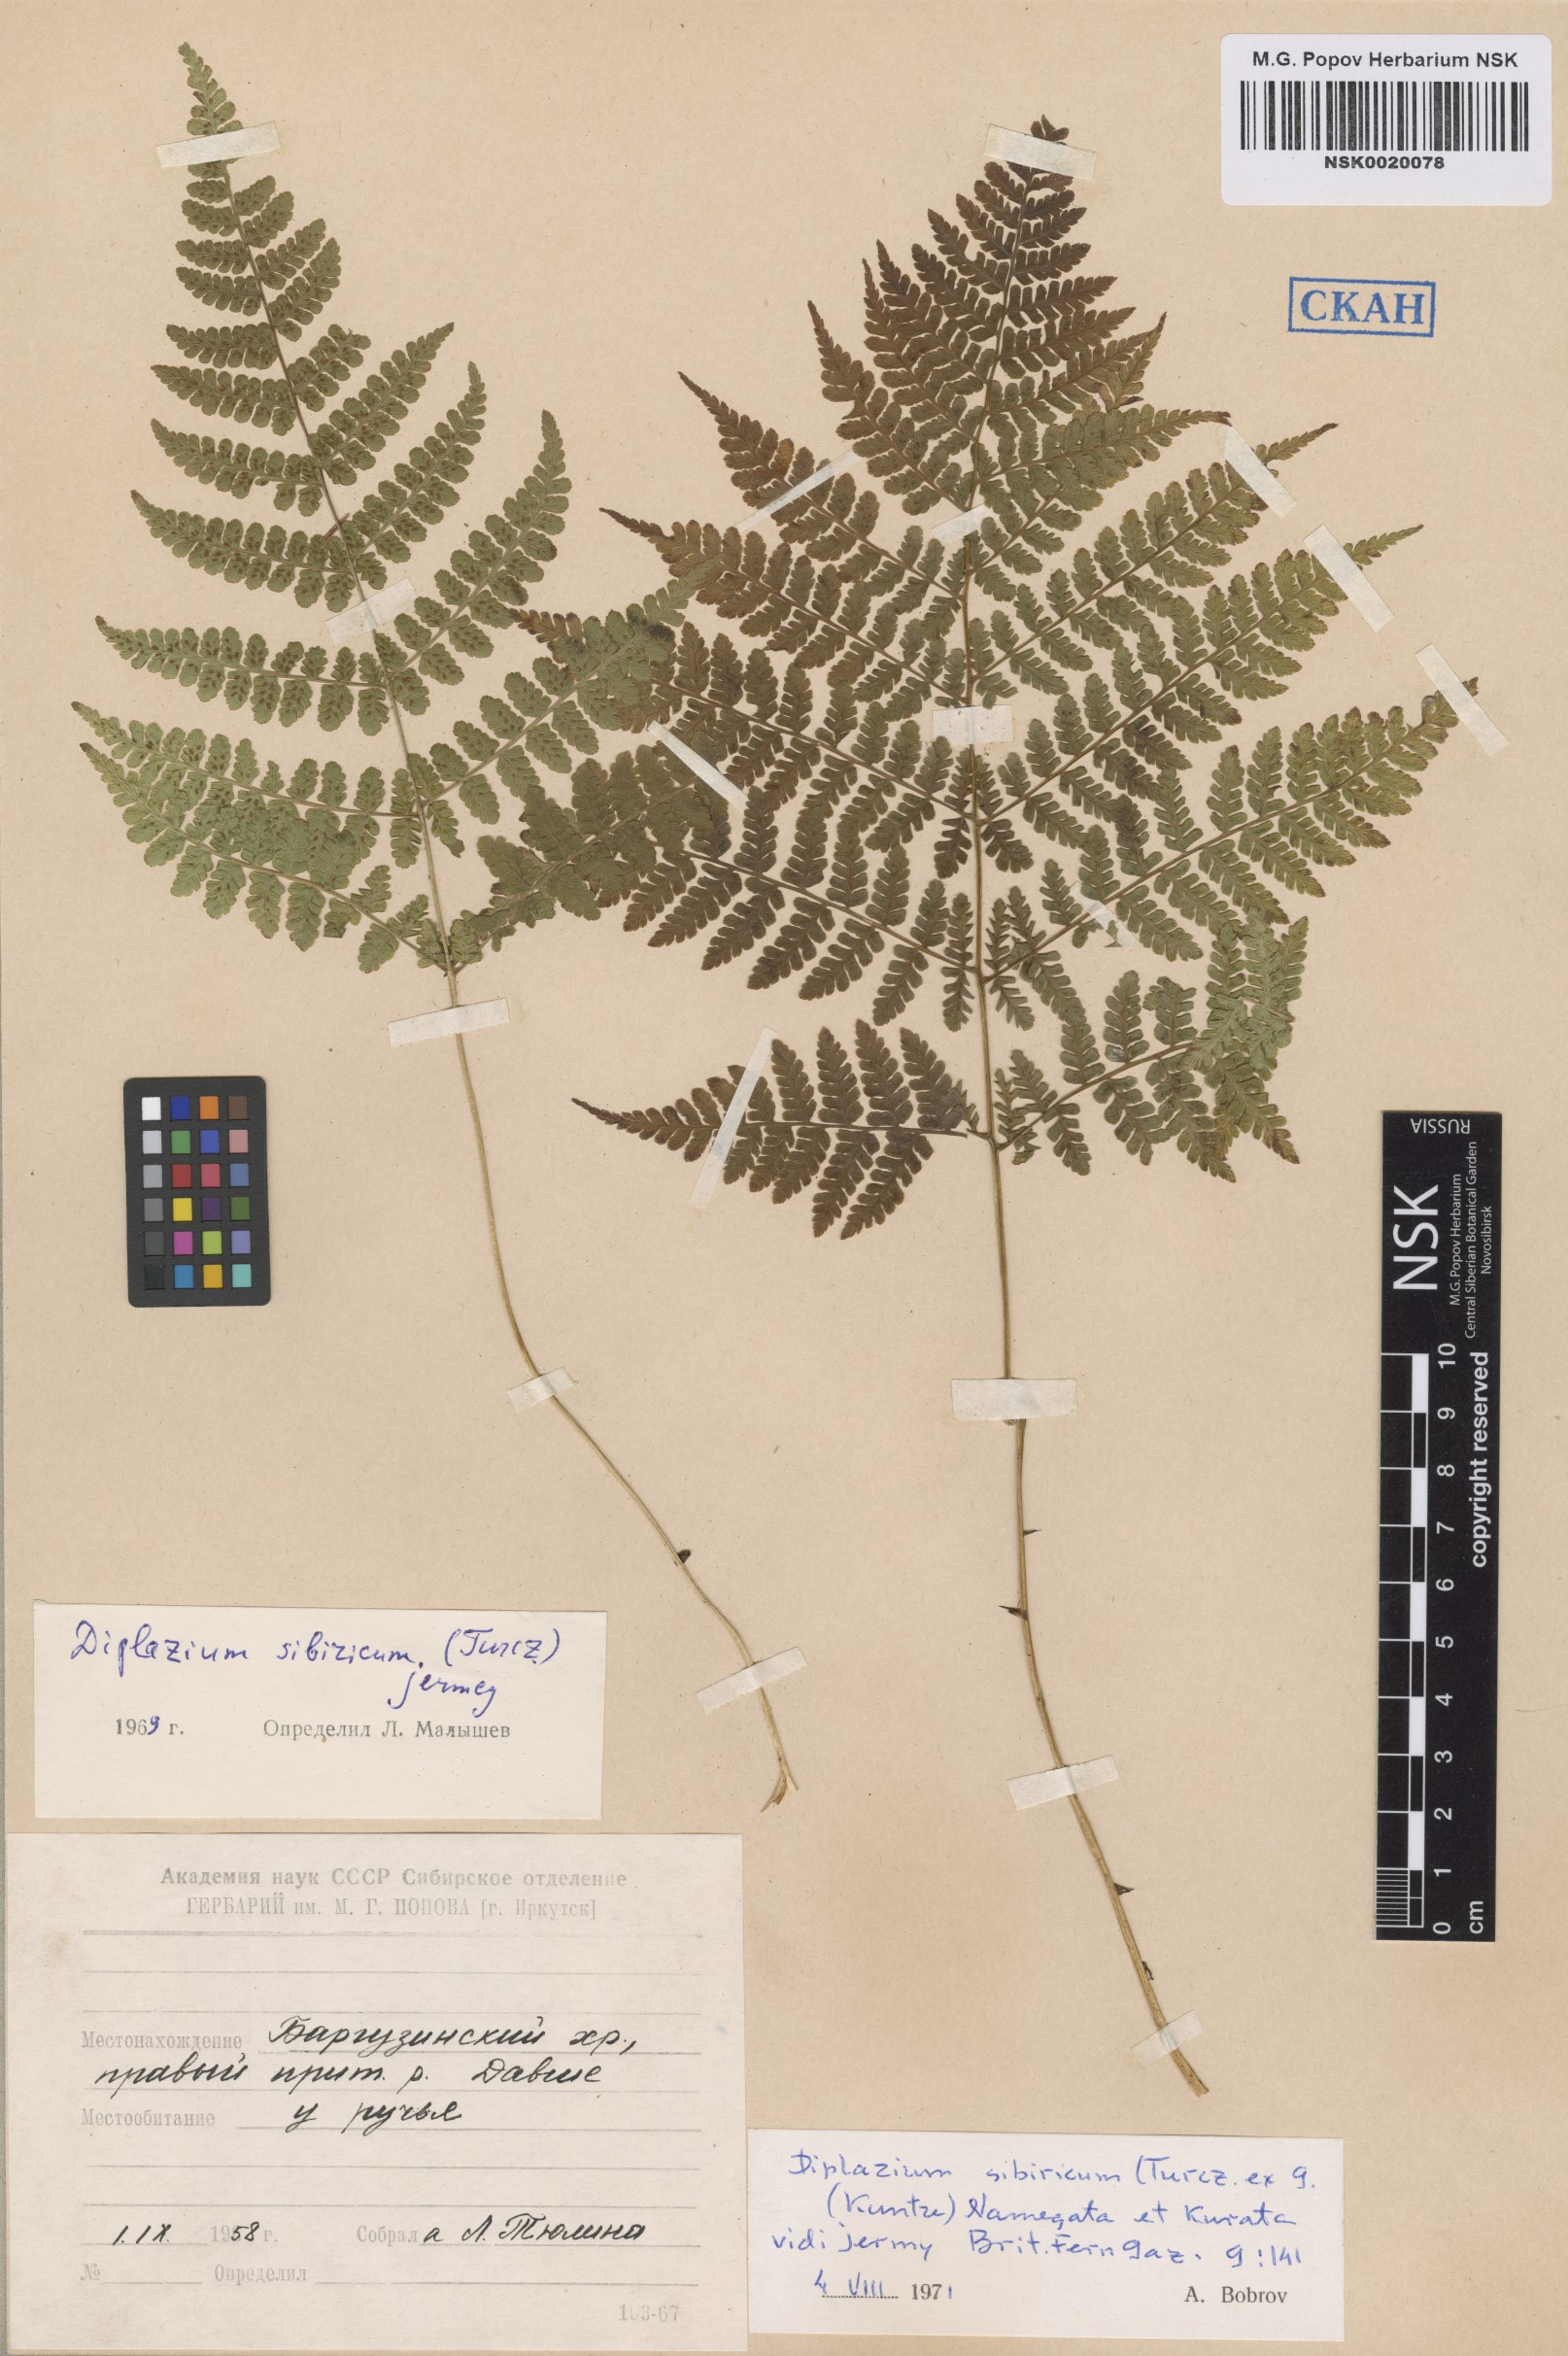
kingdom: Plantae
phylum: Tracheophyta
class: Polypodiopsida
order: Polypodiales
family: Athyriaceae
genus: Diplazium
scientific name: Diplazium sibiricum
